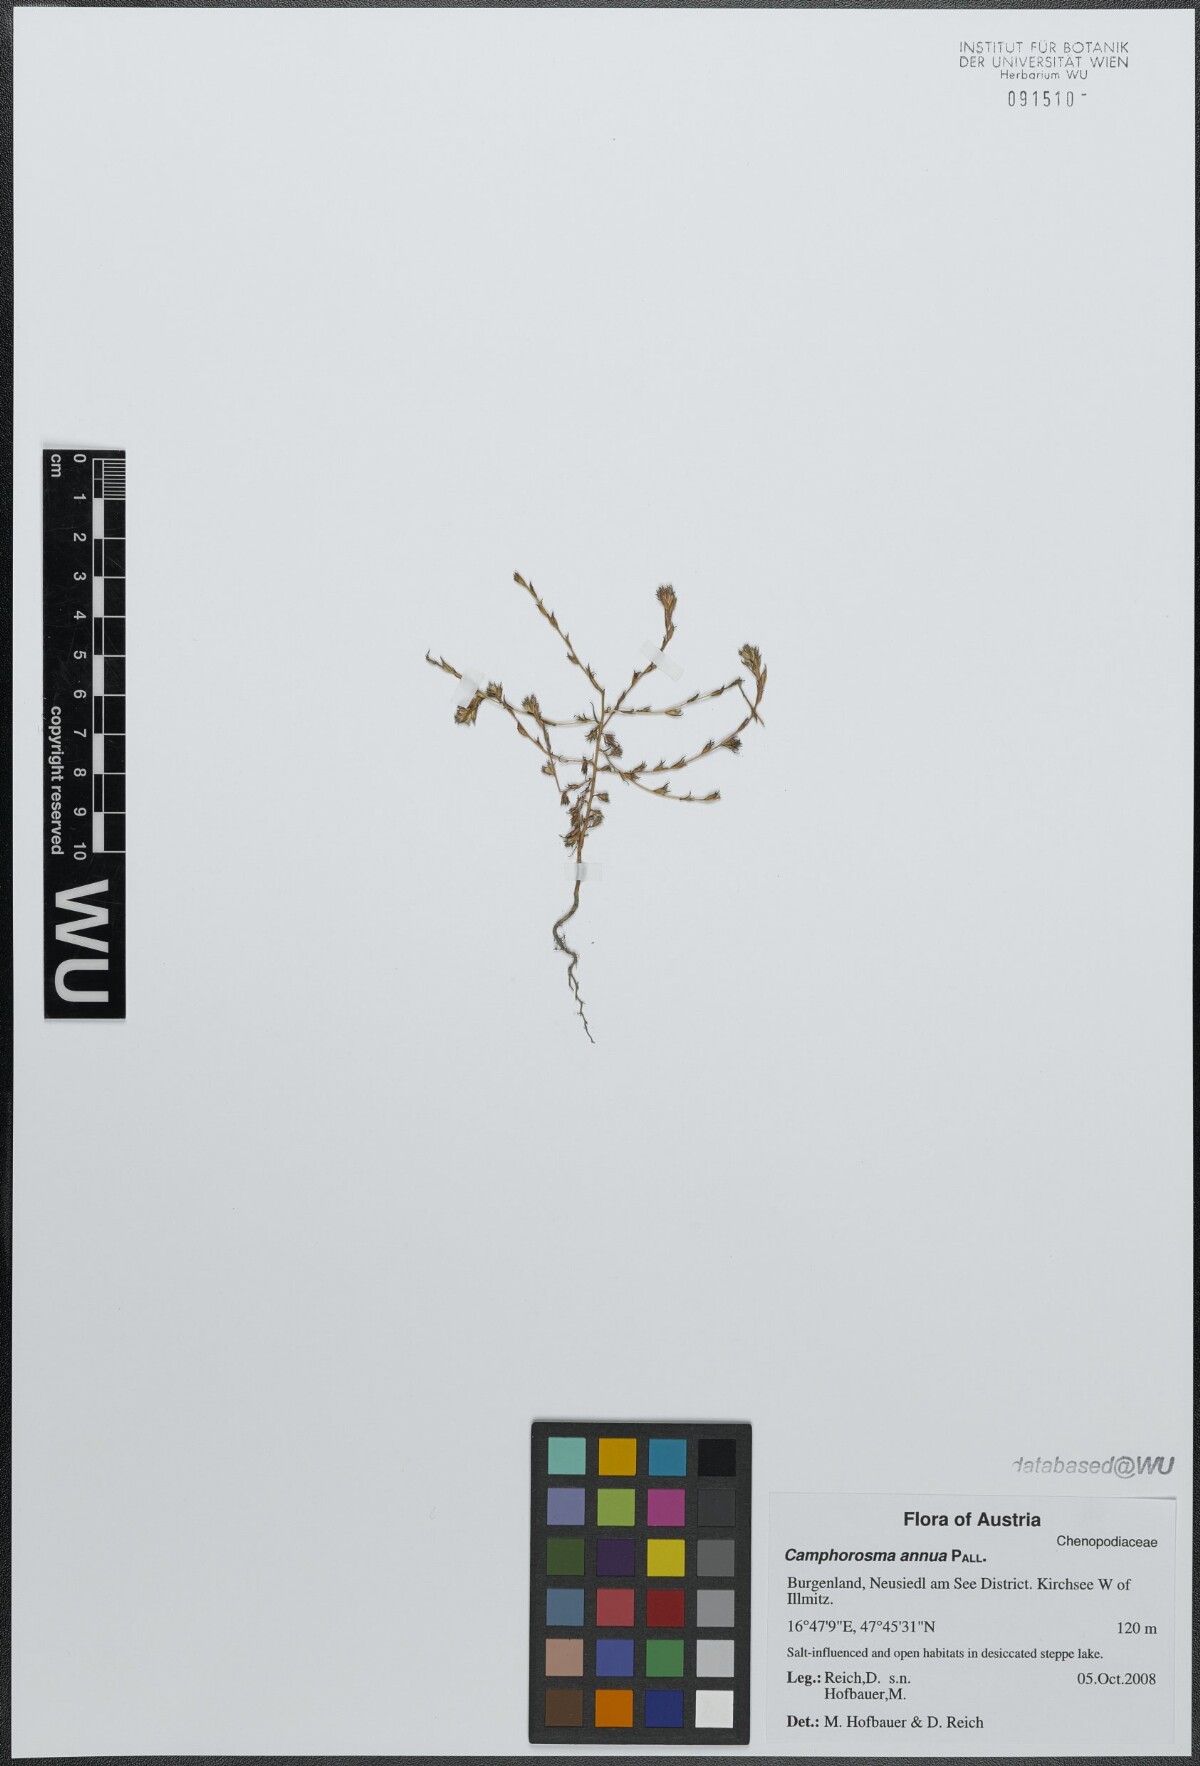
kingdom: Plantae
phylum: Tracheophyta
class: Magnoliopsida
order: Caryophyllales
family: Amaranthaceae
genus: Camphorosma
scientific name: Camphorosma annua
